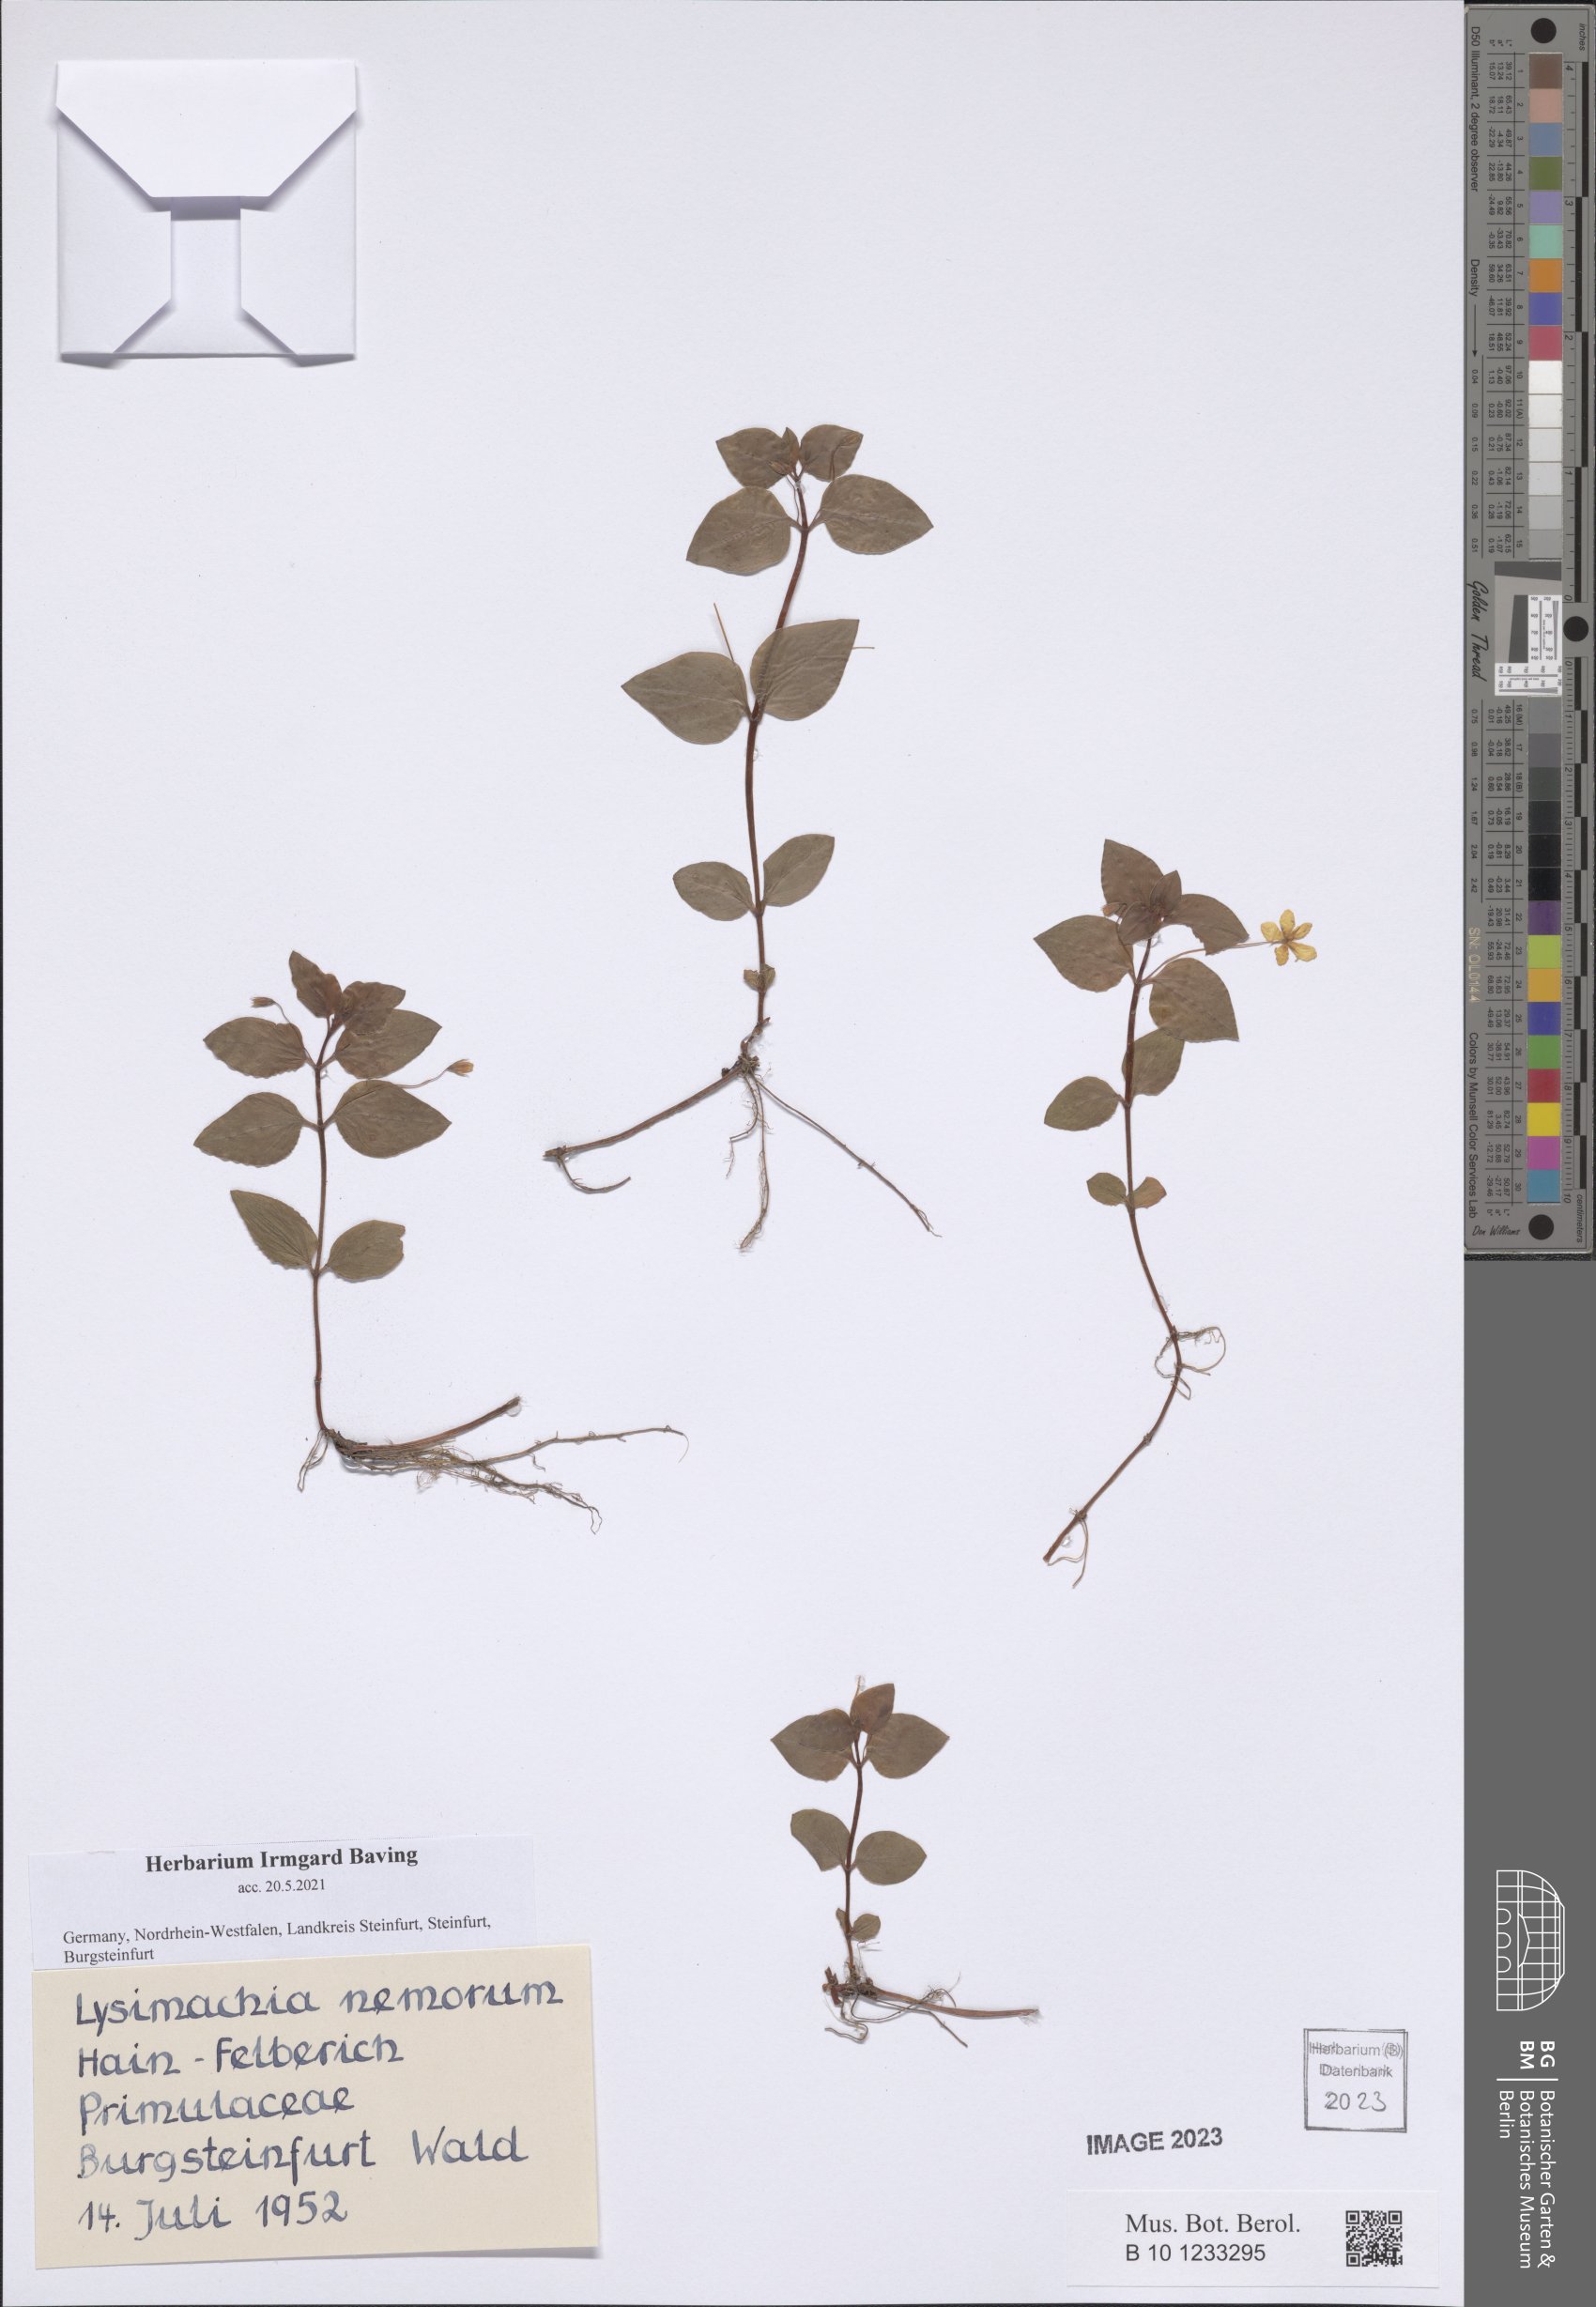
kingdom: Plantae
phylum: Tracheophyta
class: Magnoliopsida
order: Ericales
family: Primulaceae
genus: Lysimachia
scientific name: Lysimachia nemorum
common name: Yellow pimpernel
